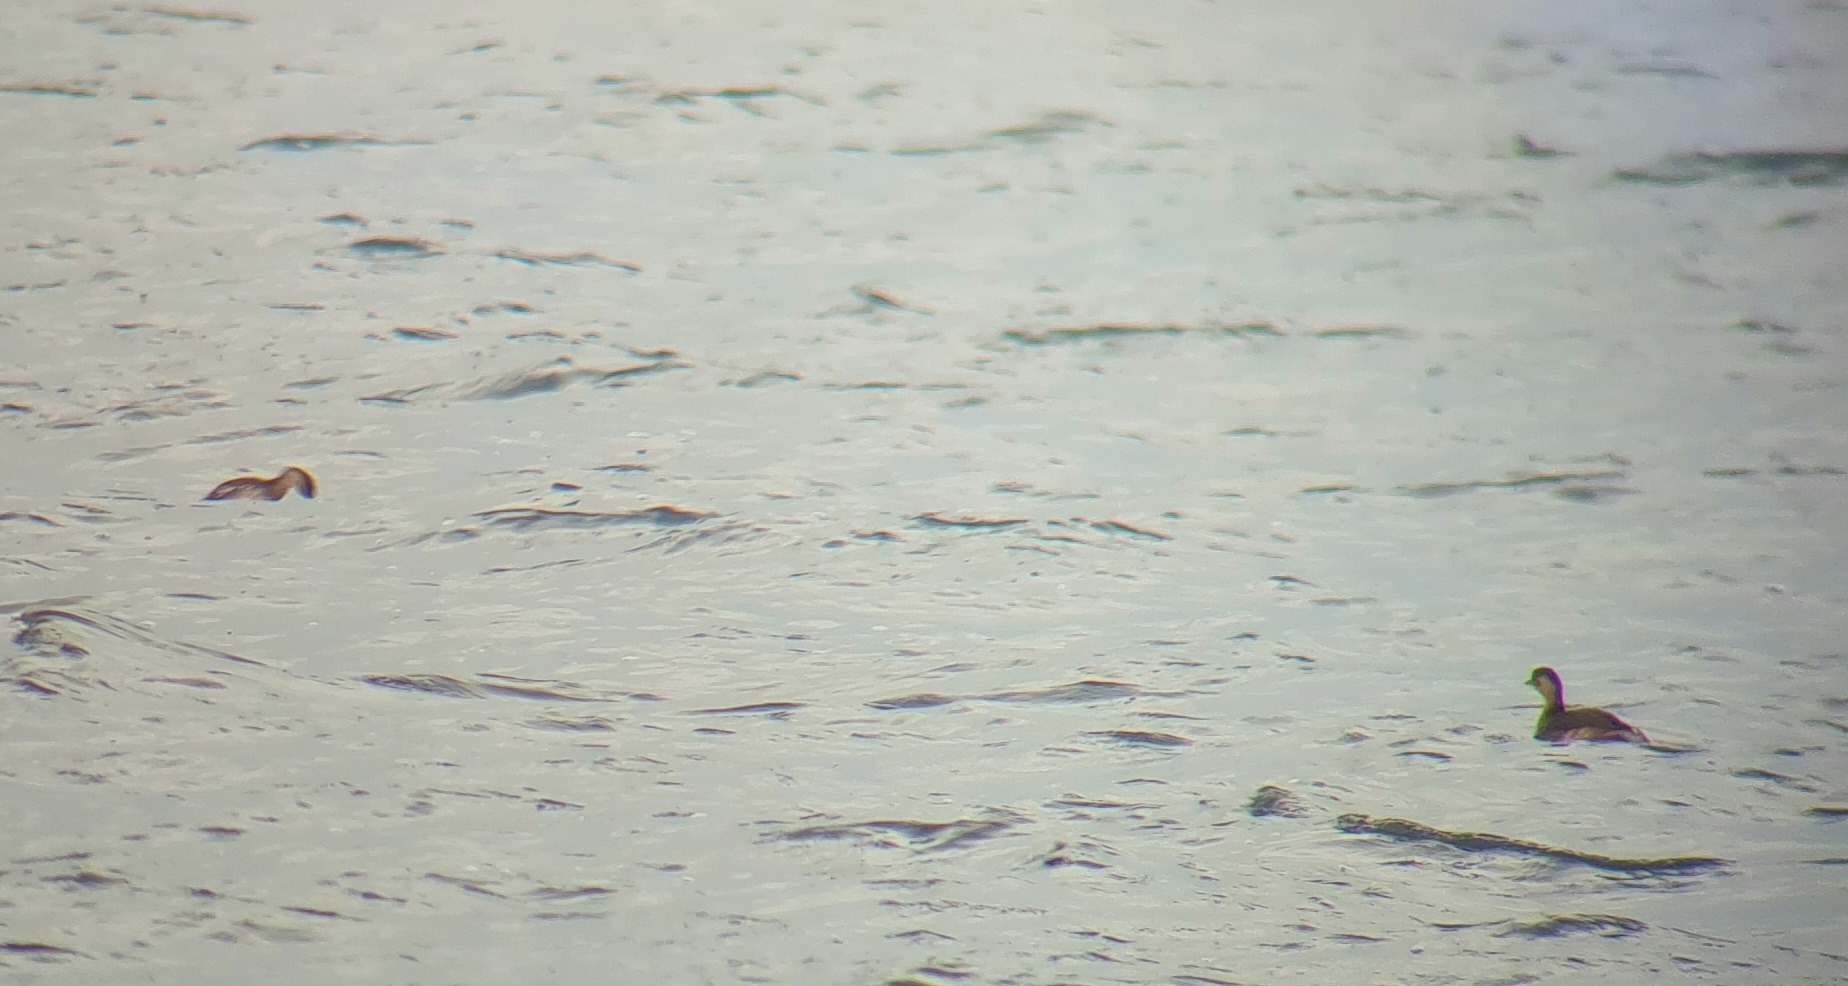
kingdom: Animalia
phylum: Chordata
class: Aves
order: Podicipediformes
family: Podicipedidae
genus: Tachybaptus
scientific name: Tachybaptus ruficollis
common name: Lille lappedykker
